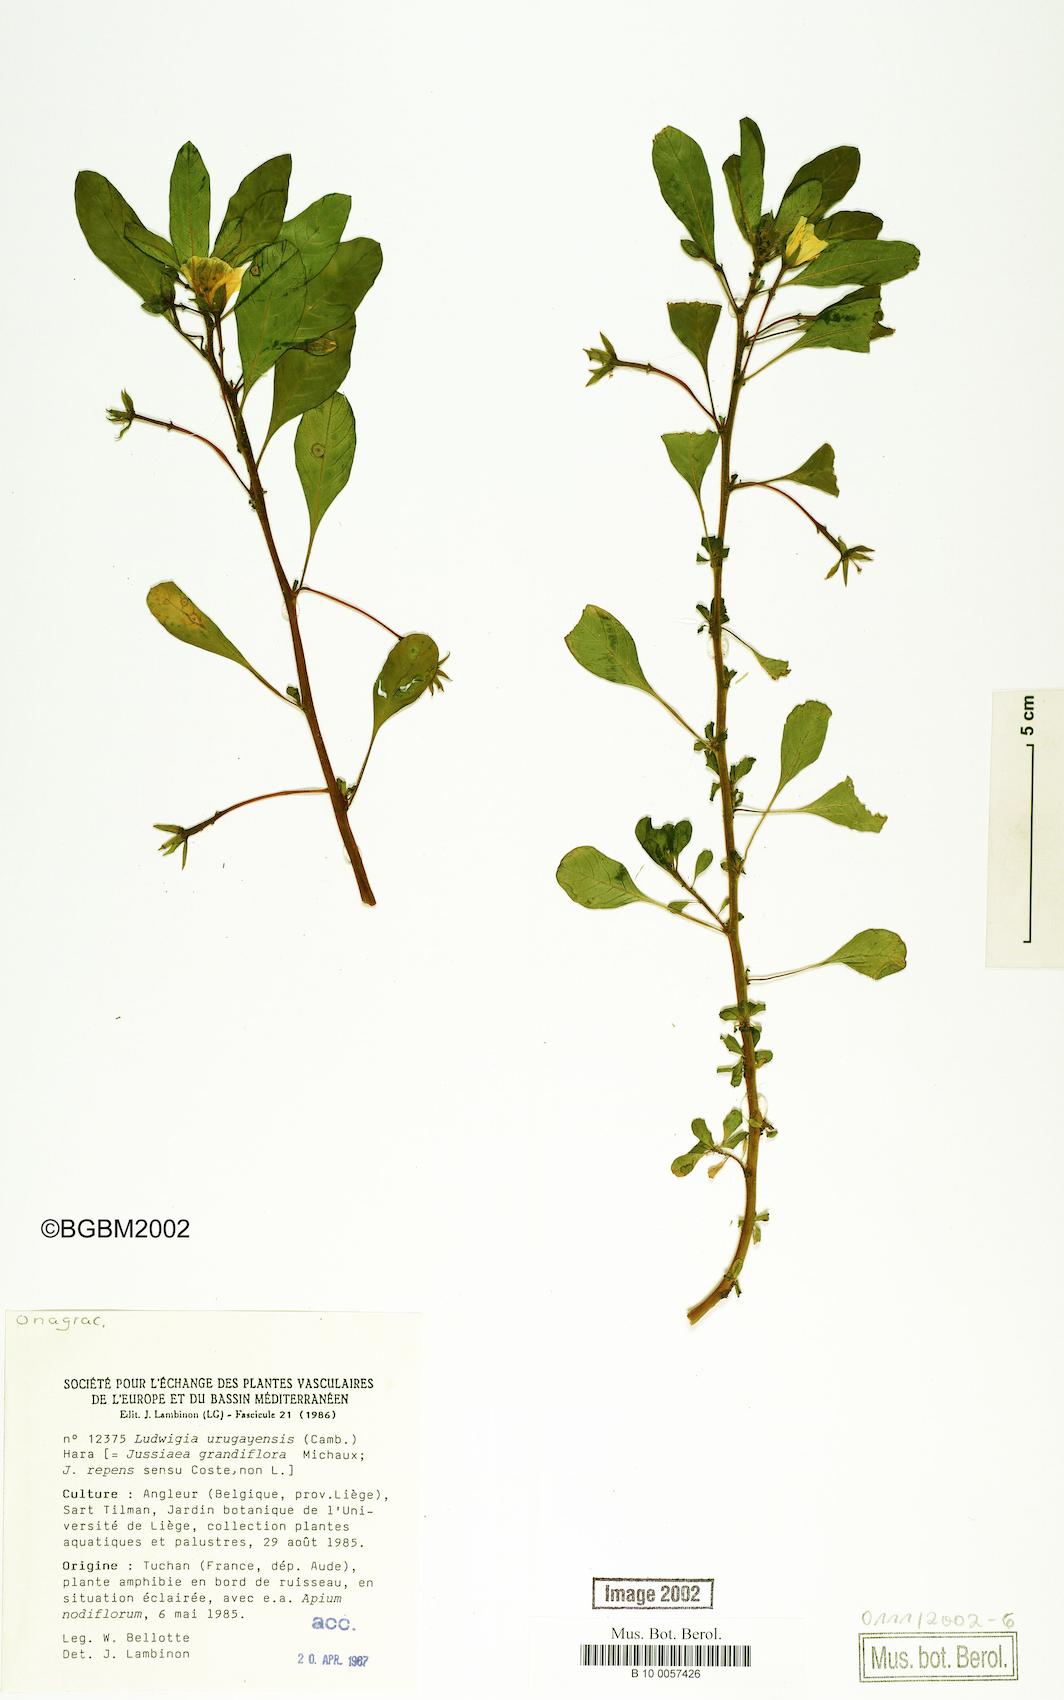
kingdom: Plantae
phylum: Tracheophyta
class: Magnoliopsida
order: Myrtales
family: Onagraceae
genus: Ludwigia
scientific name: Ludwigia grandiflora
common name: Water primrose
